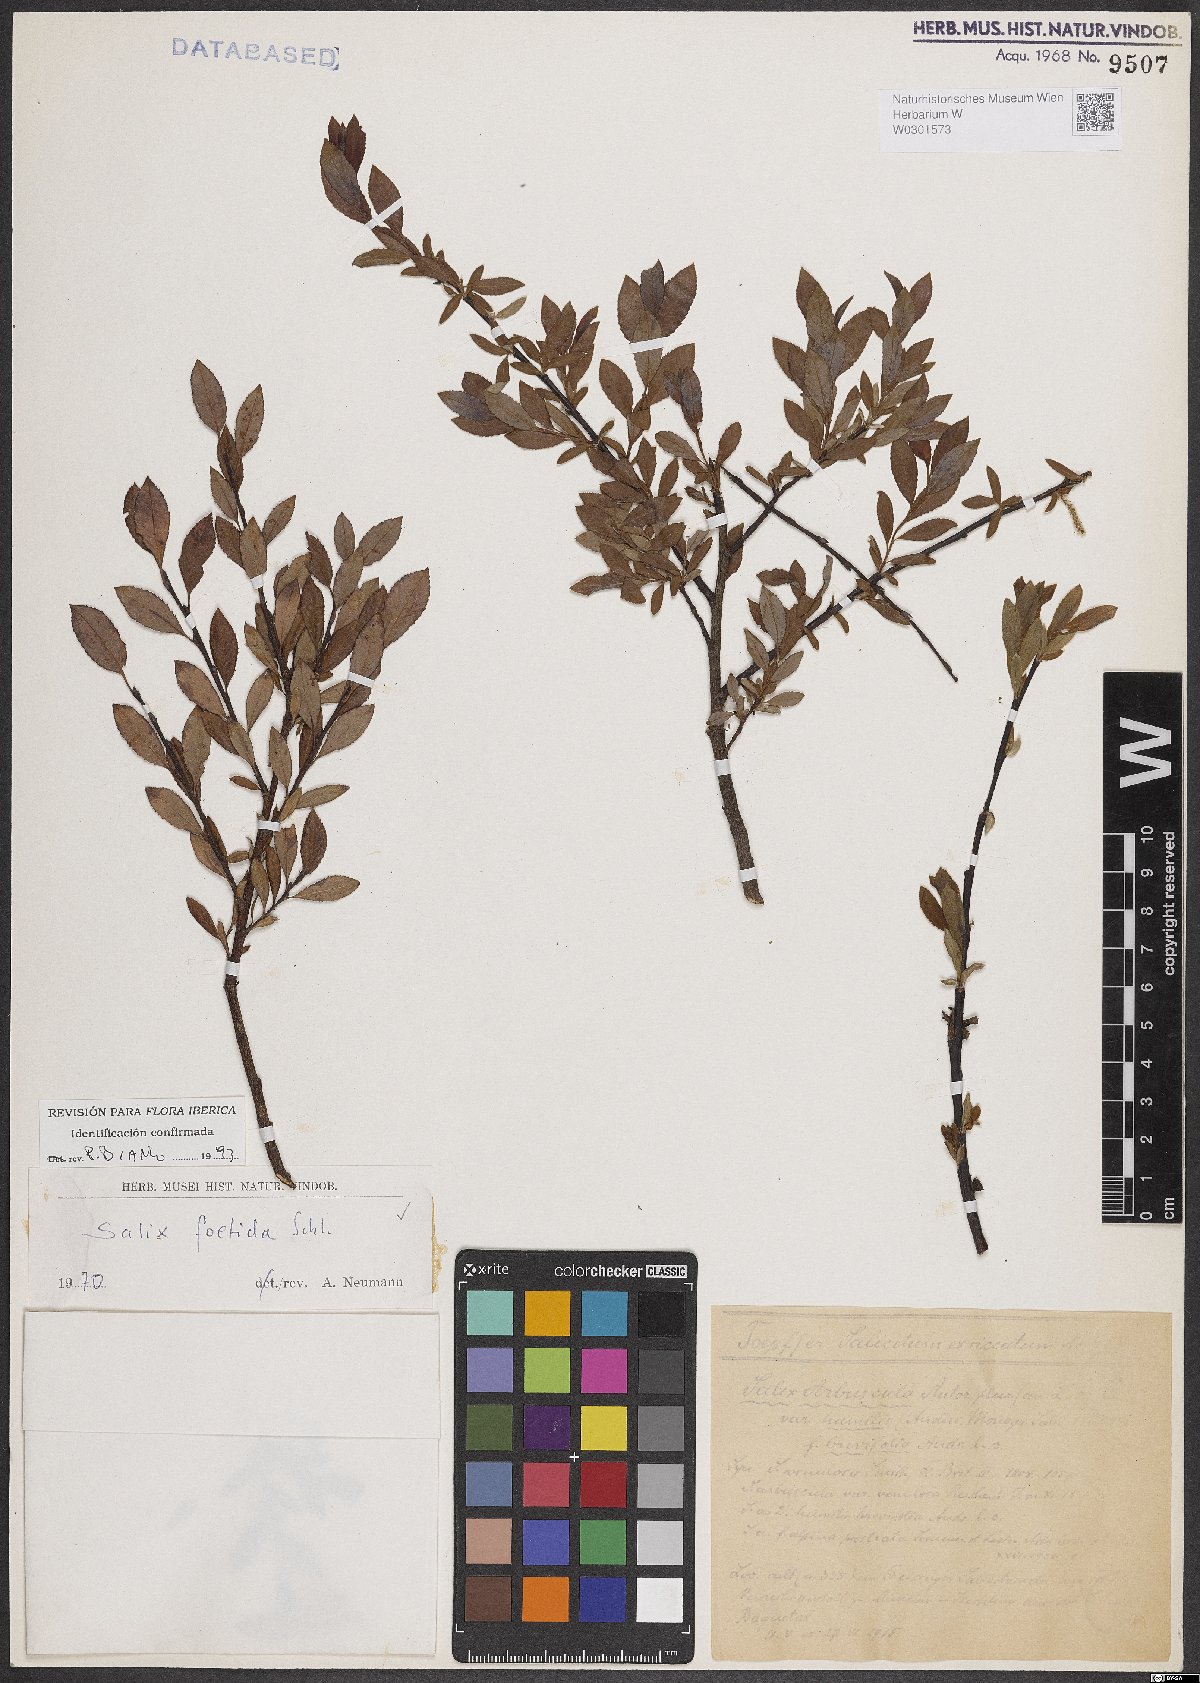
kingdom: Plantae
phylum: Tracheophyta
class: Magnoliopsida
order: Malpighiales
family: Salicaceae
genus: Salix
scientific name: Salix foetida
